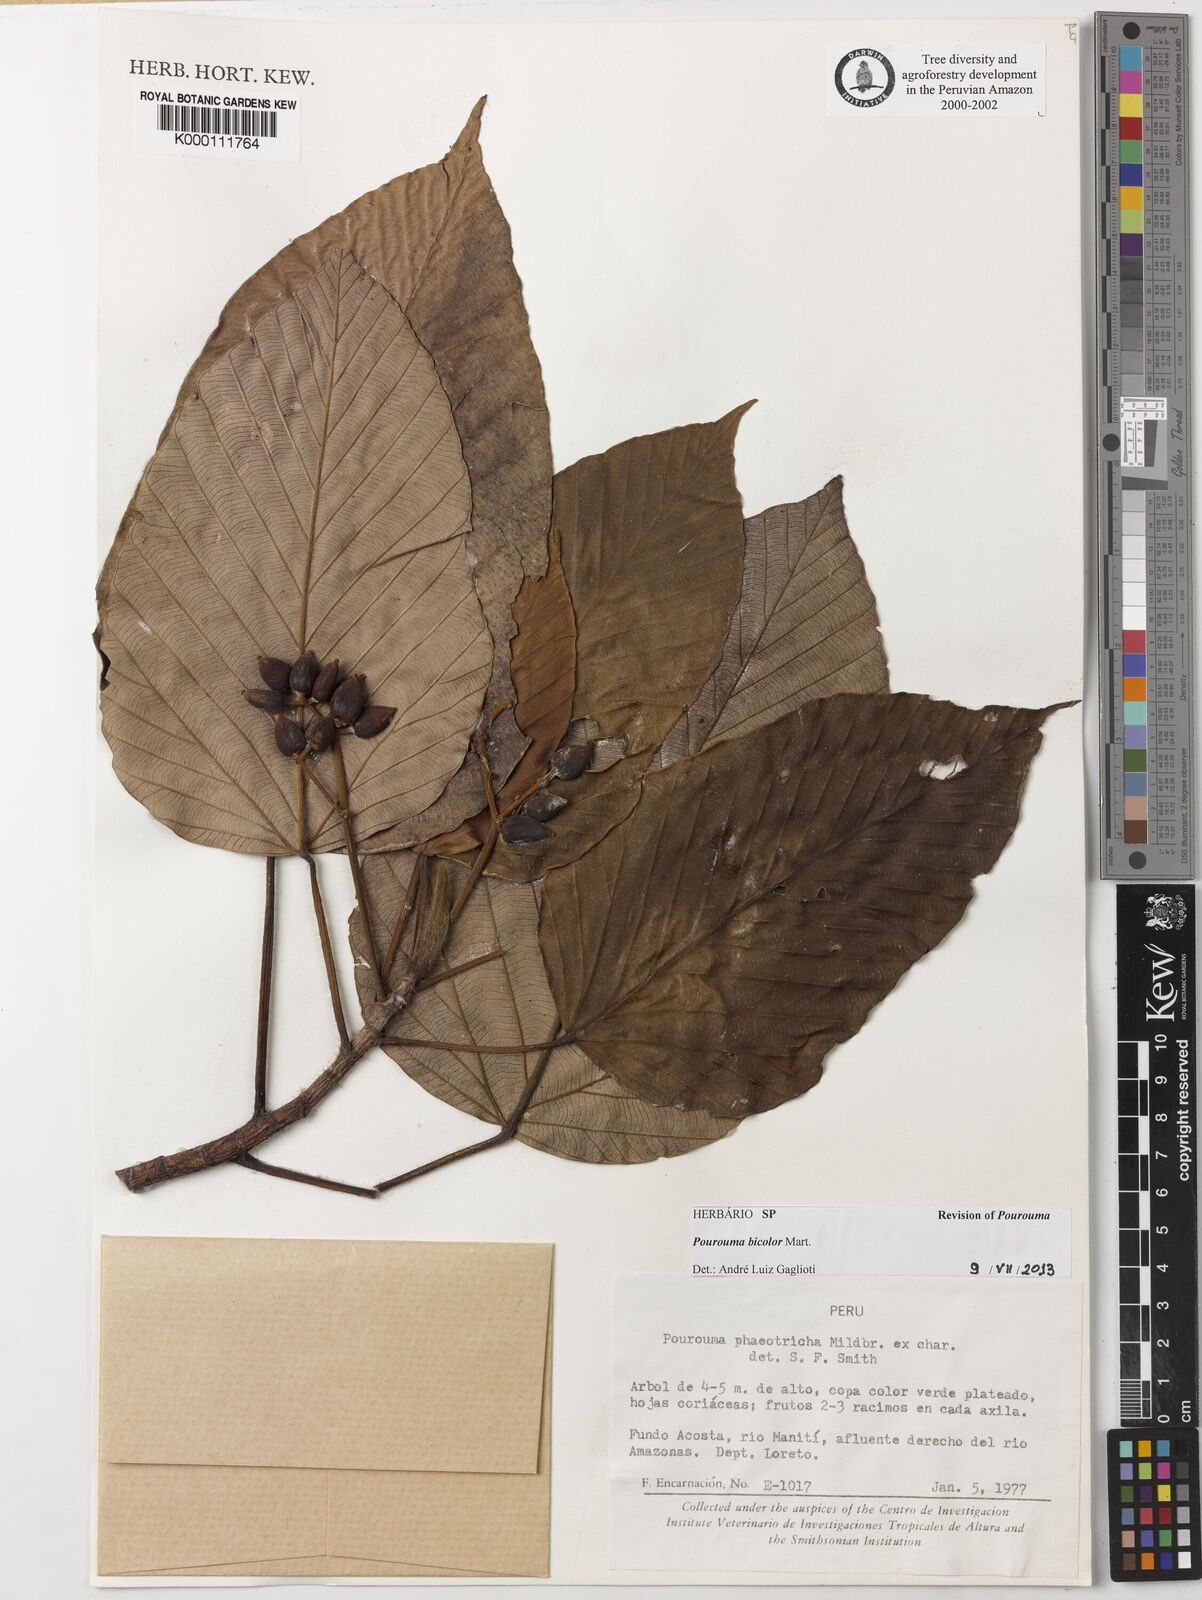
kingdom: Plantae
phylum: Tracheophyta
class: Magnoliopsida
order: Rosales
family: Urticaceae
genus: Pourouma
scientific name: Pourouma bicolor
